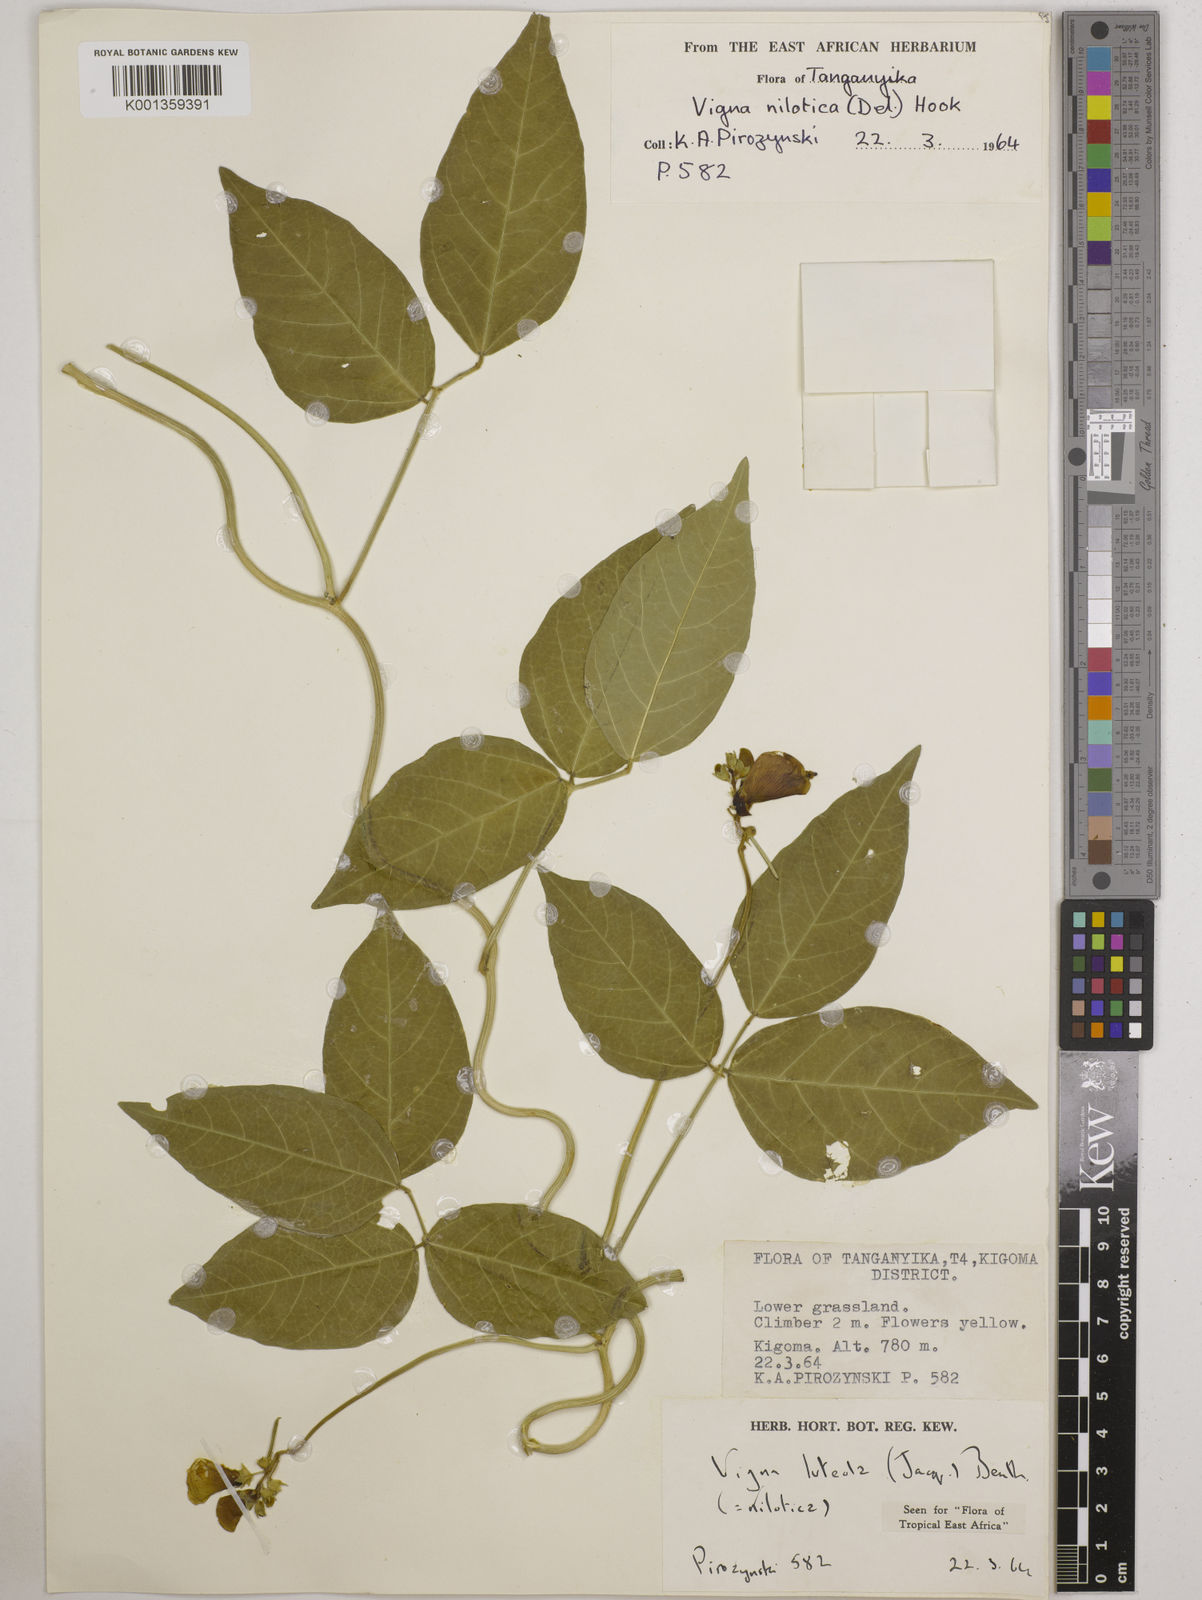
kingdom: Plantae
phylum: Tracheophyta
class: Magnoliopsida
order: Fabales
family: Fabaceae
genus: Vigna
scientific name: Vigna luteola
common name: Hairypod cowpea
